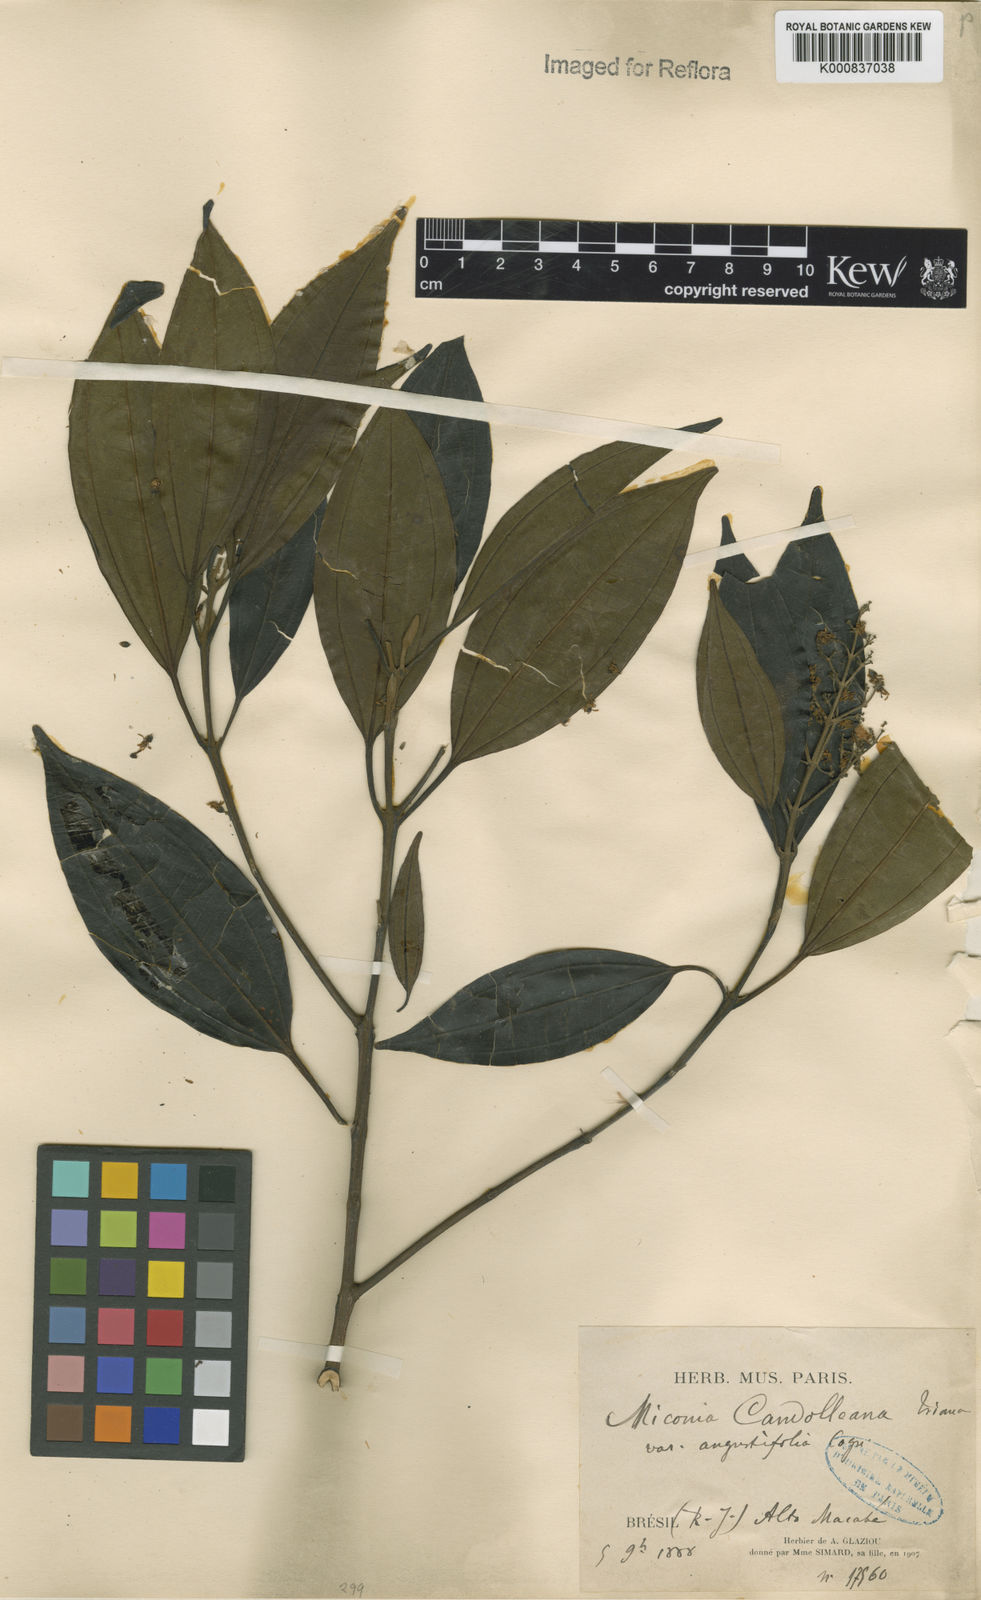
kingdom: Plantae
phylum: Tracheophyta
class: Magnoliopsida
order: Myrtales
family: Melastomataceae
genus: Miconia
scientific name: Miconia cinnamomifolia
